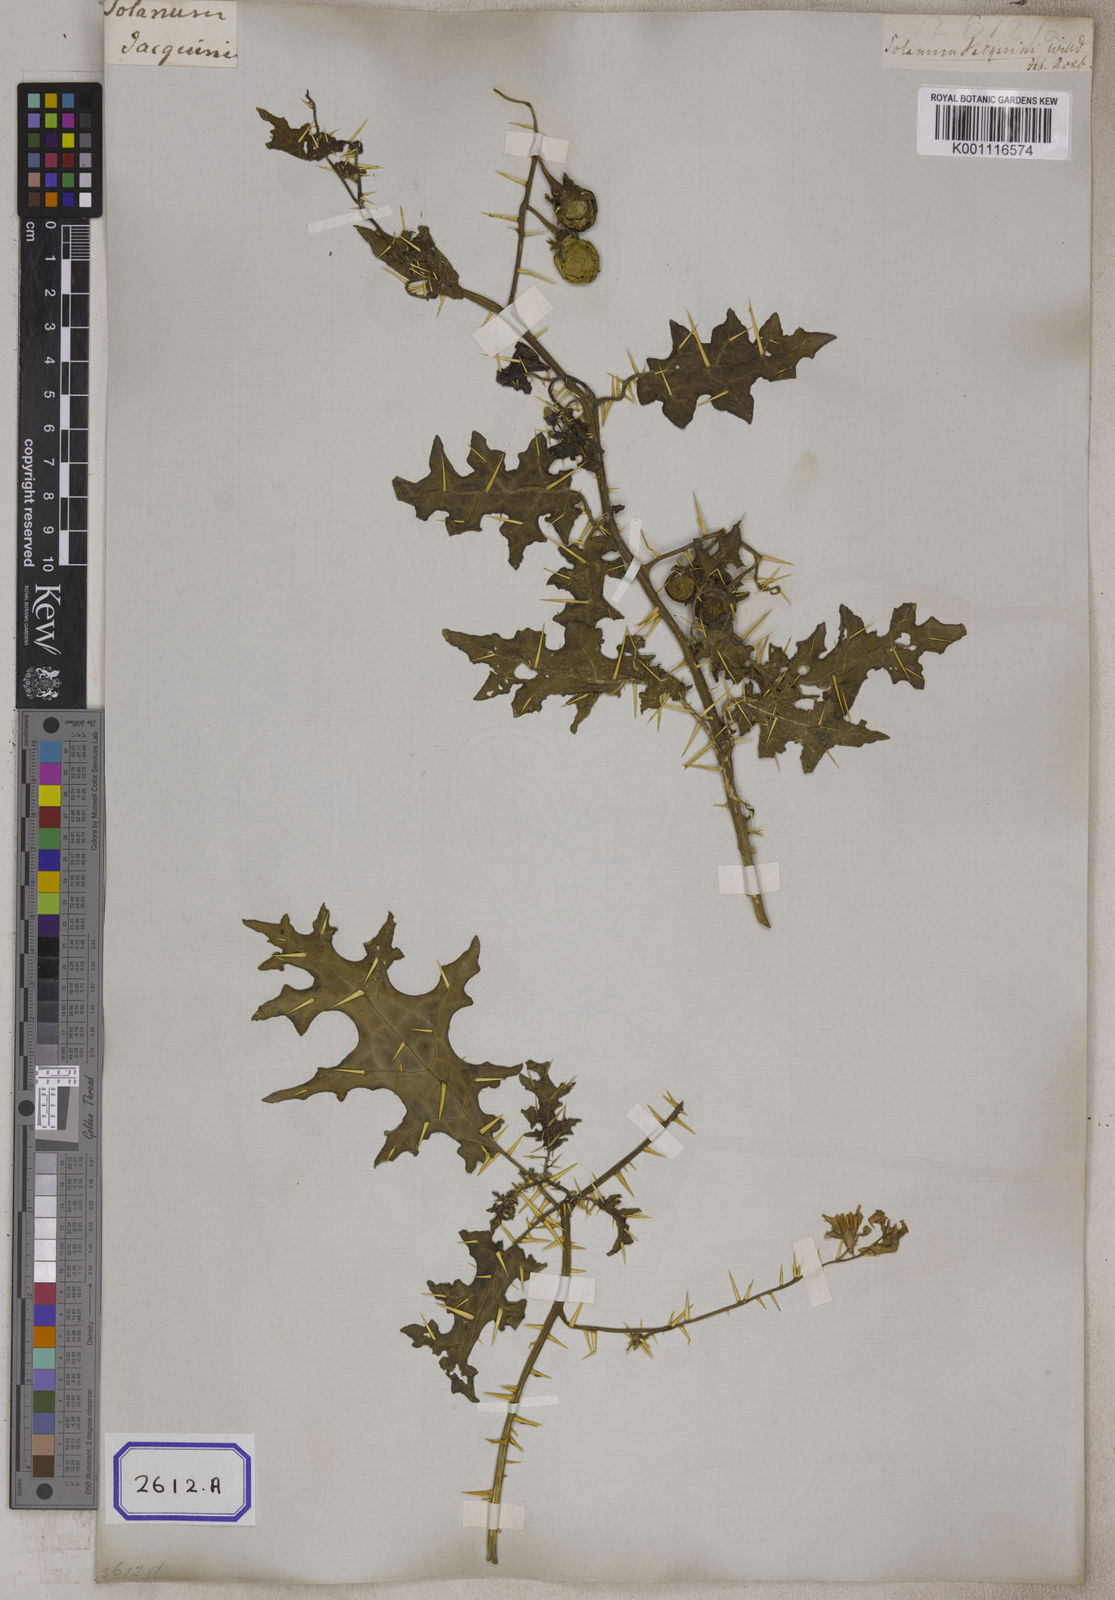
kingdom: Plantae
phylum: Tracheophyta
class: Magnoliopsida
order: Solanales
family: Solanaceae
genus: Solanum
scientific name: Solanum virginianum
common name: Surattense nightshade
